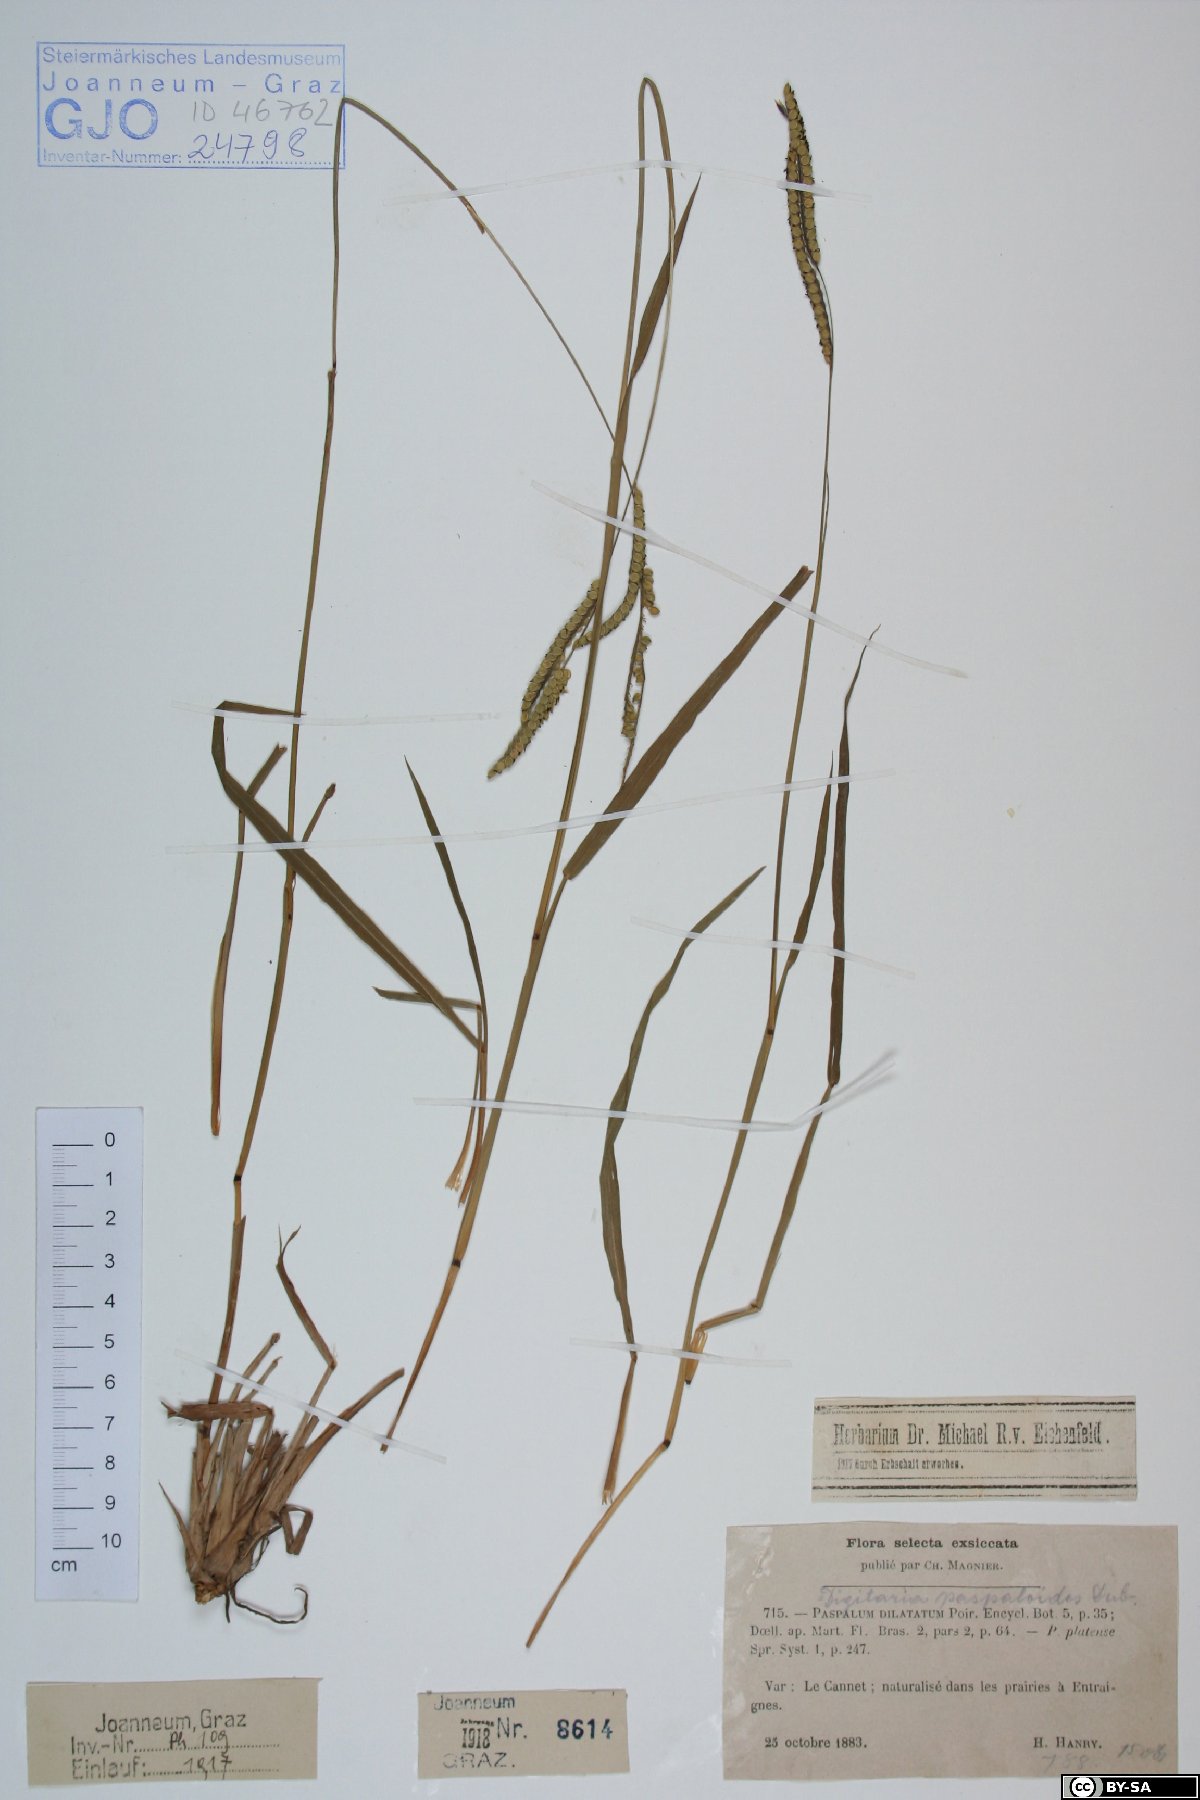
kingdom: Plantae
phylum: Tracheophyta
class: Liliopsida
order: Poales
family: Poaceae
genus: Paspalum
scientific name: Paspalum dilatatum
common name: Dallisgrass
